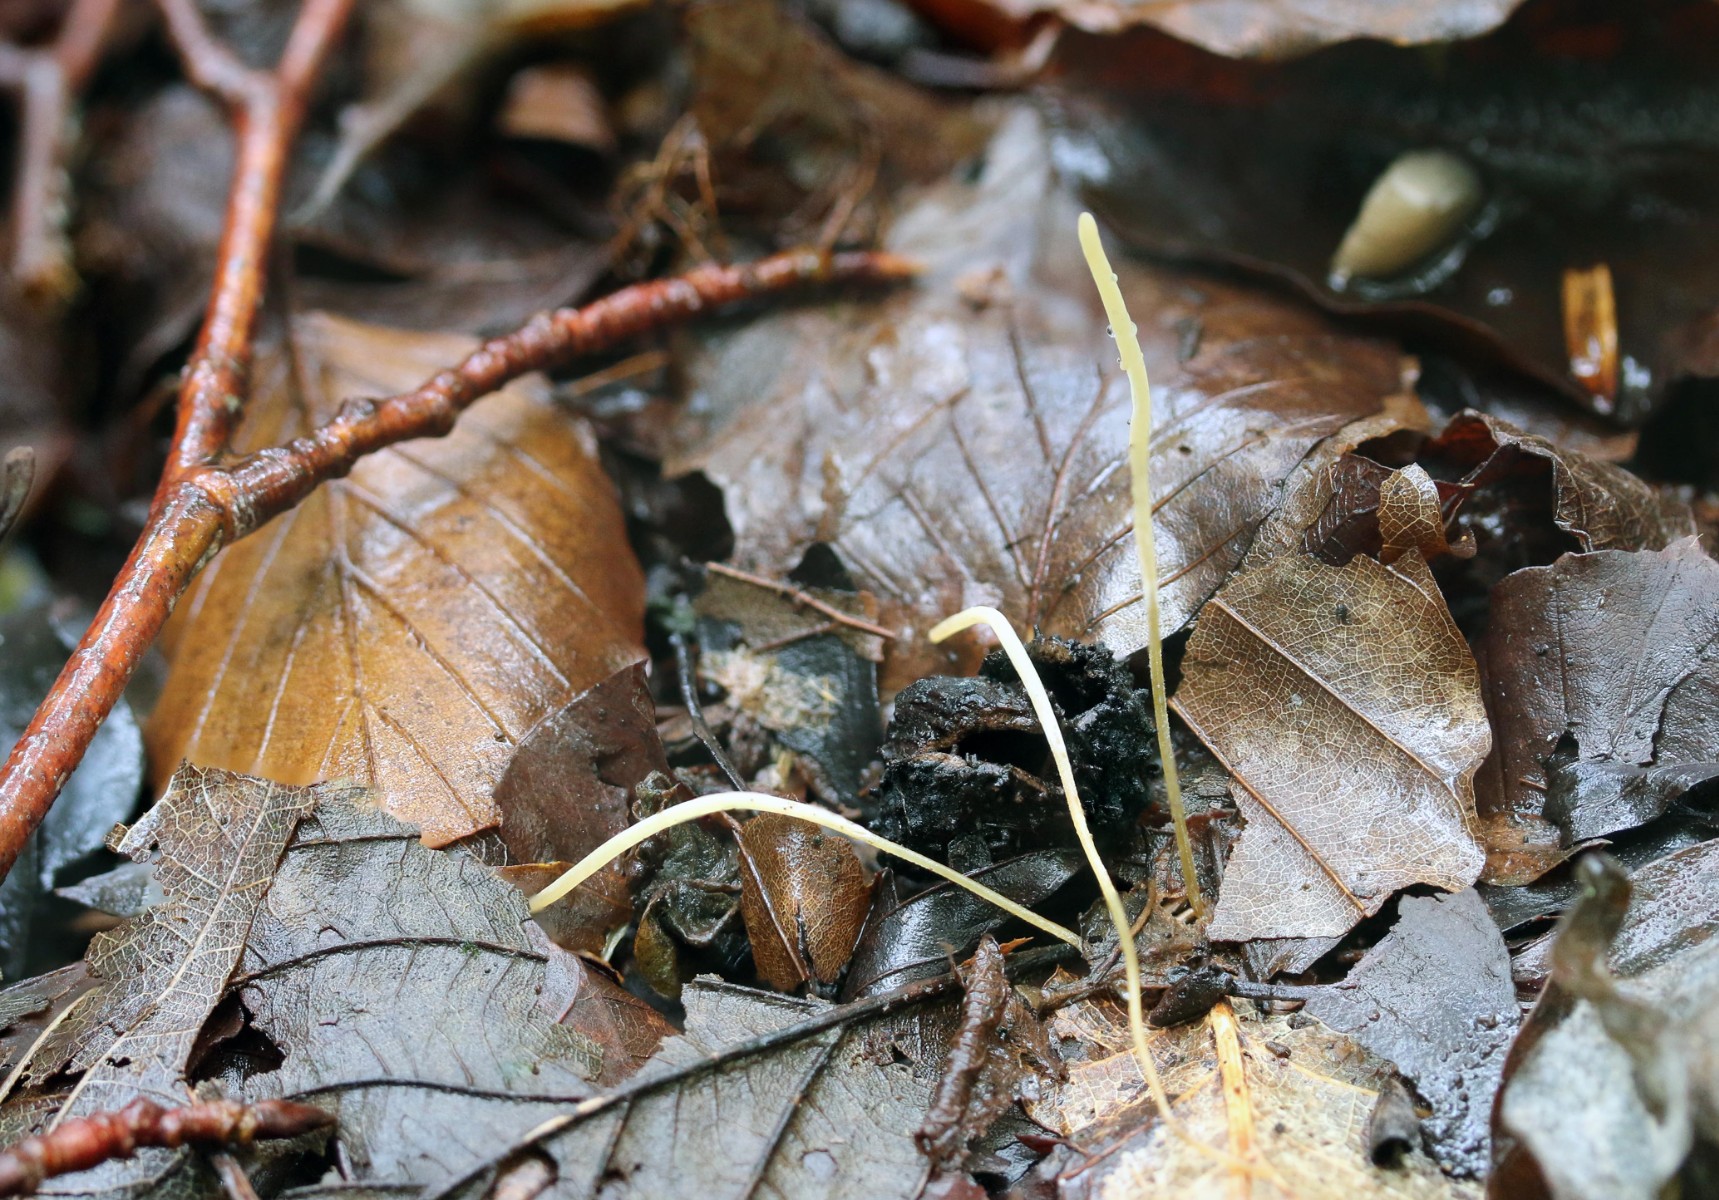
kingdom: Fungi
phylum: Basidiomycota
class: Agaricomycetes
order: Agaricales
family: Typhulaceae
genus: Typhula
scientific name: Typhula juncea
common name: trådagtig rørkølle
